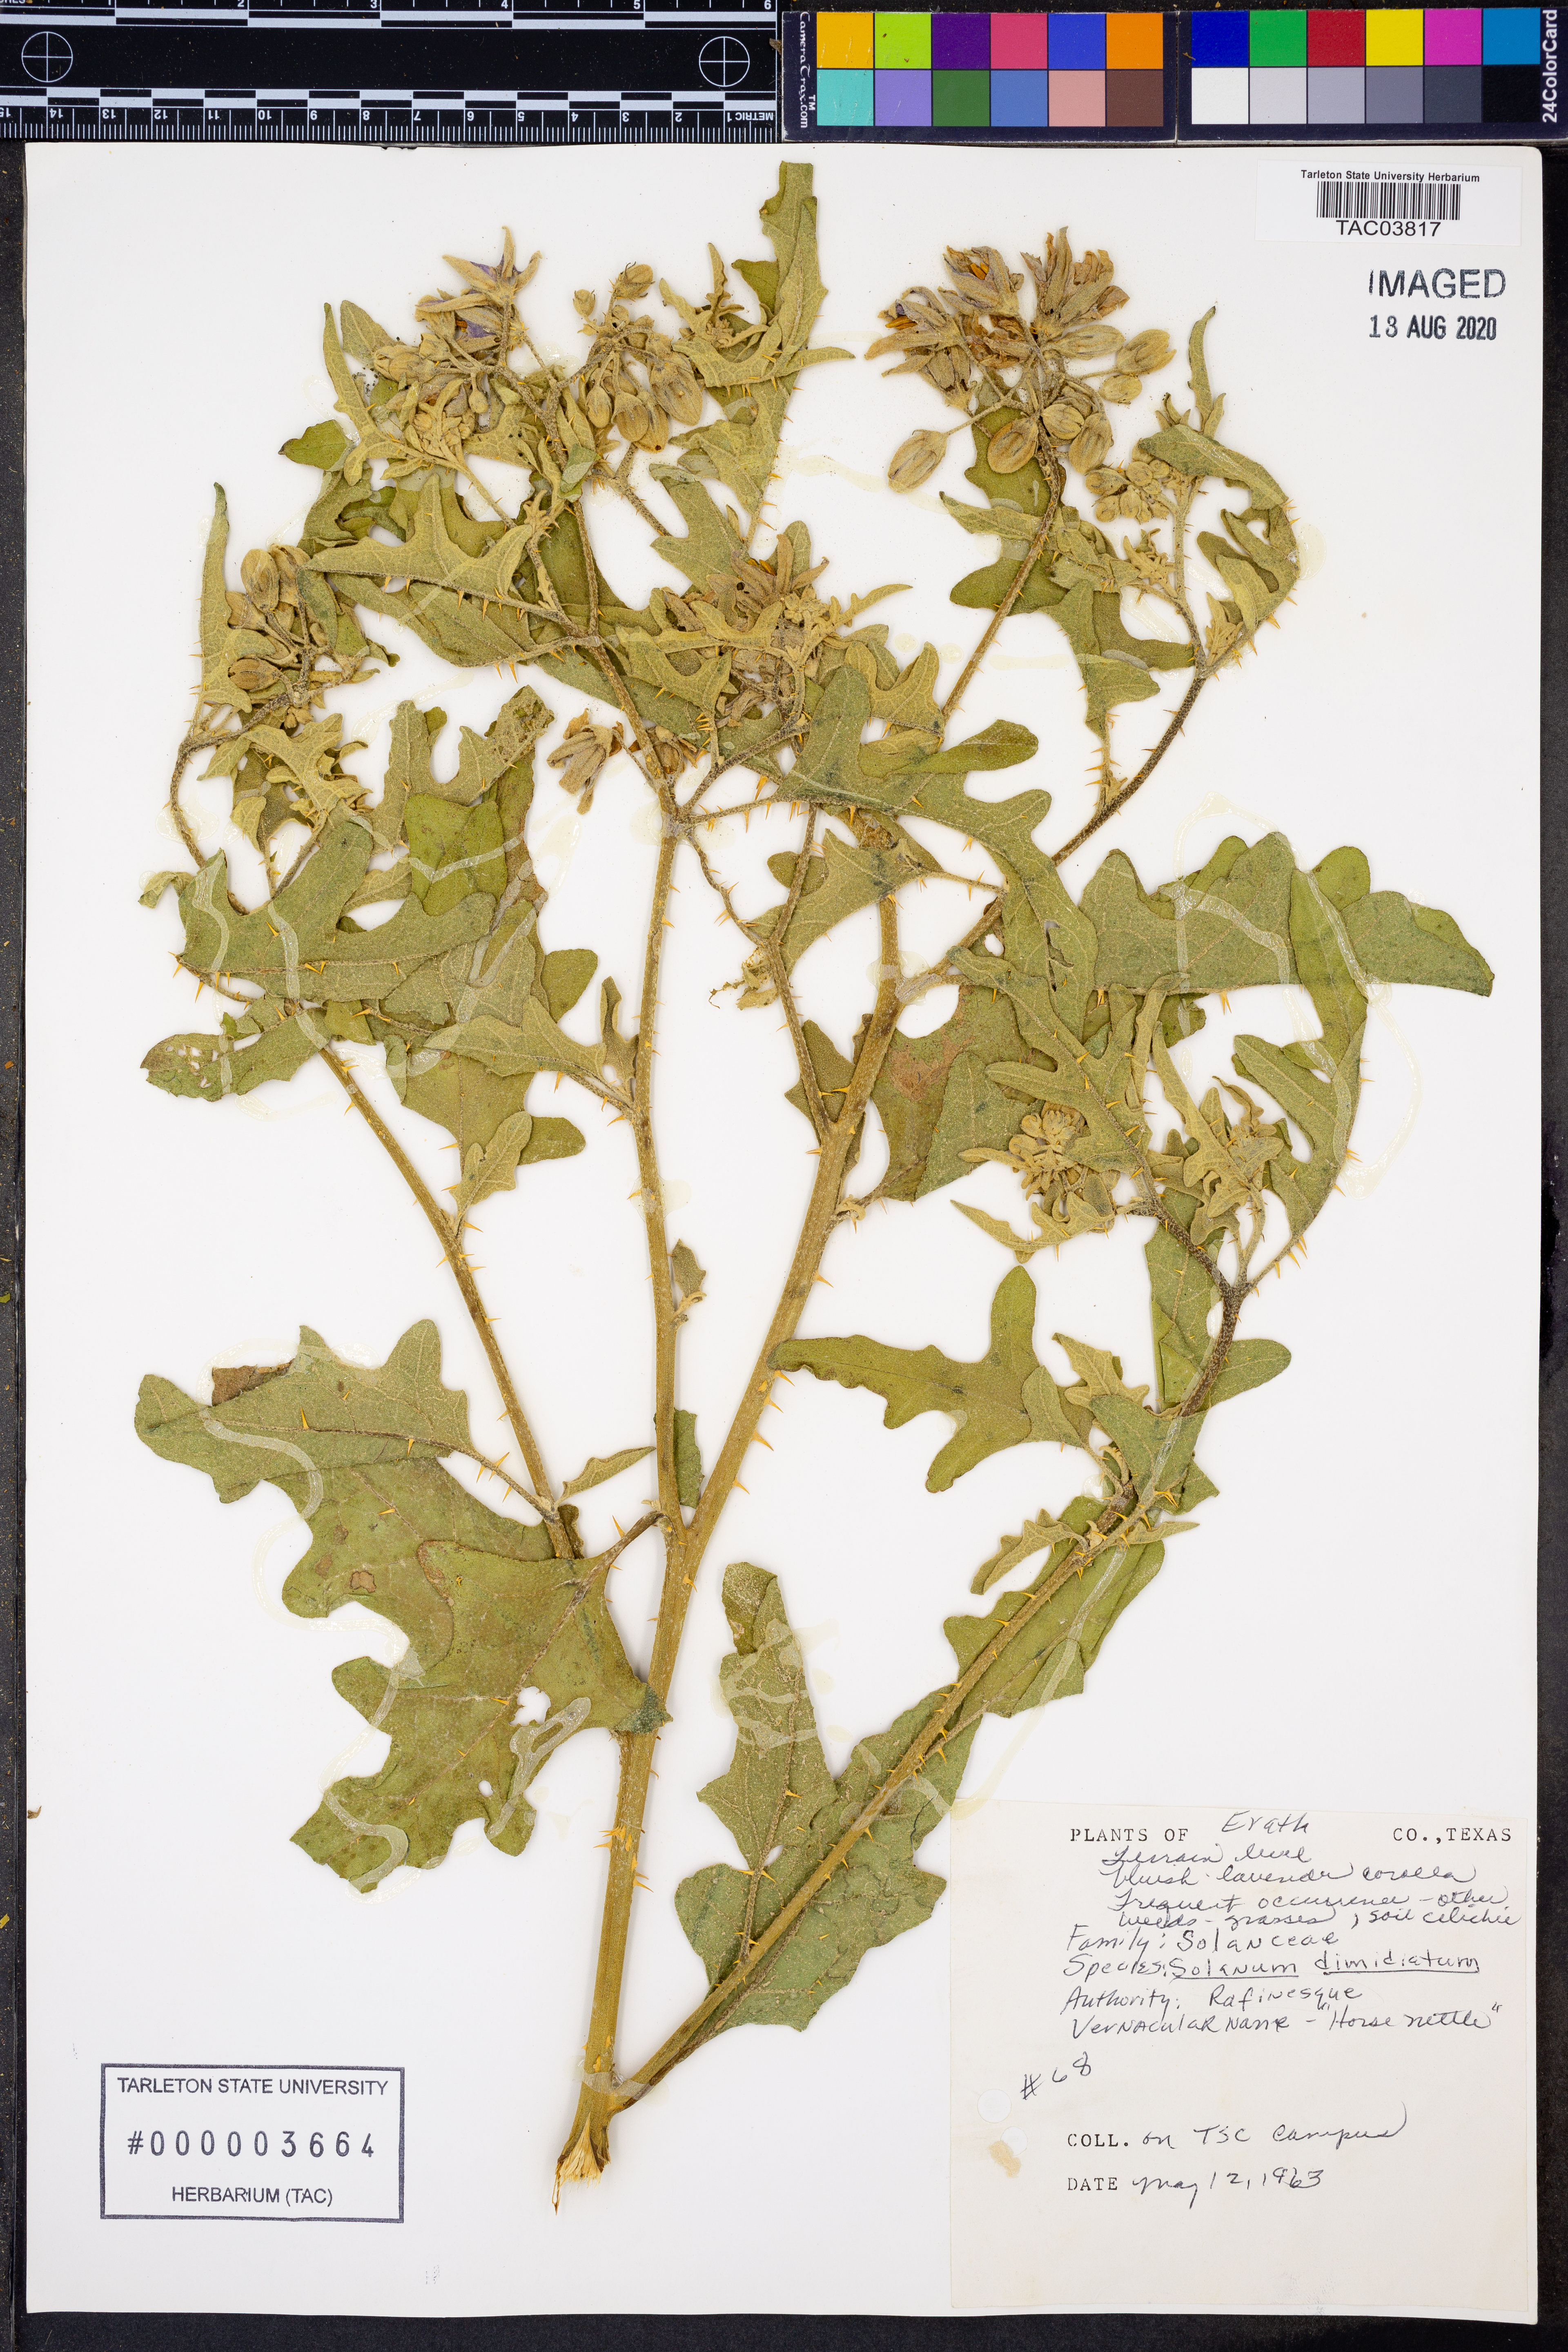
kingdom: Plantae
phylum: Tracheophyta
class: Magnoliopsida
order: Solanales
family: Solanaceae
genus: Solanum
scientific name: Solanum dimidiatum
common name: Carolina horse-nettle
